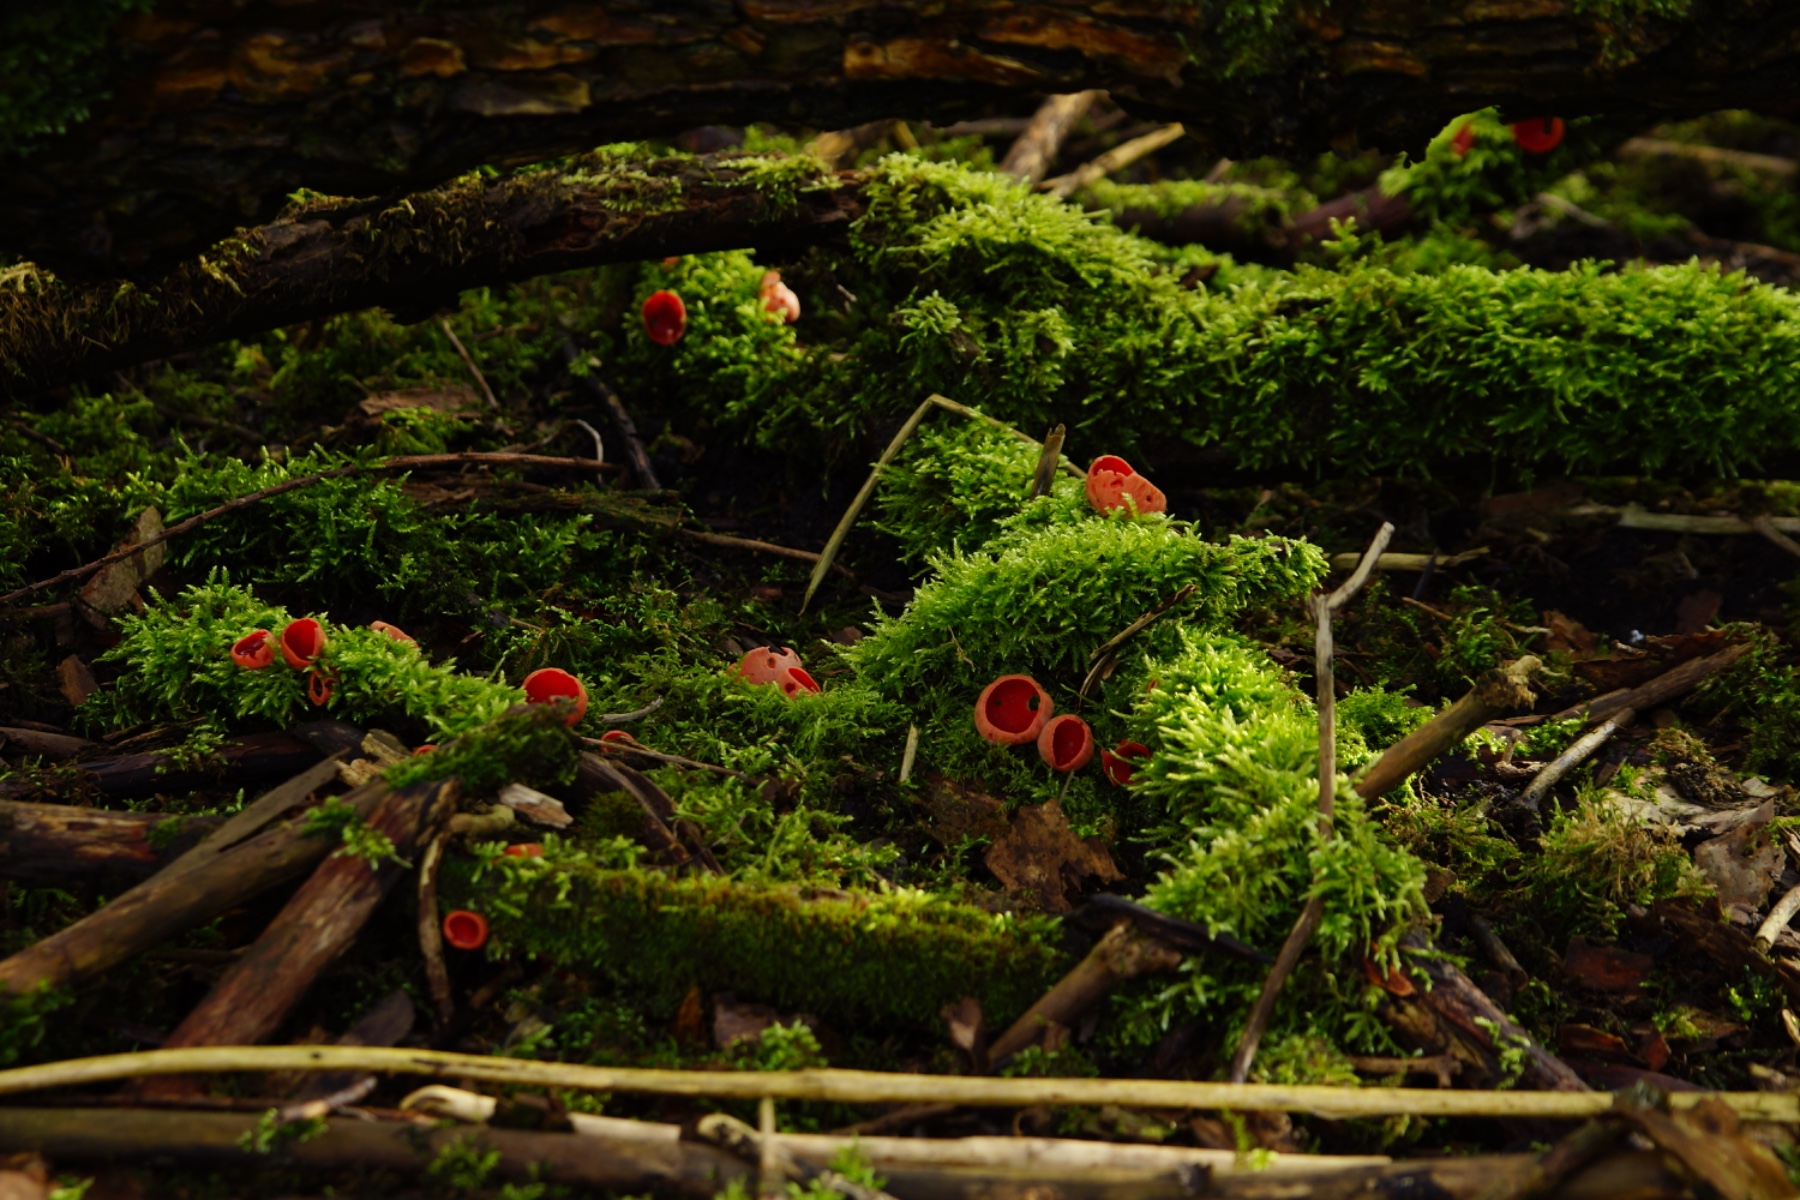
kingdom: Fungi
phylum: Ascomycota
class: Pezizomycetes
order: Pezizales
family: Sarcoscyphaceae
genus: Sarcoscypha
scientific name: Sarcoscypha austriaca
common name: krølhåret pragtbæger
